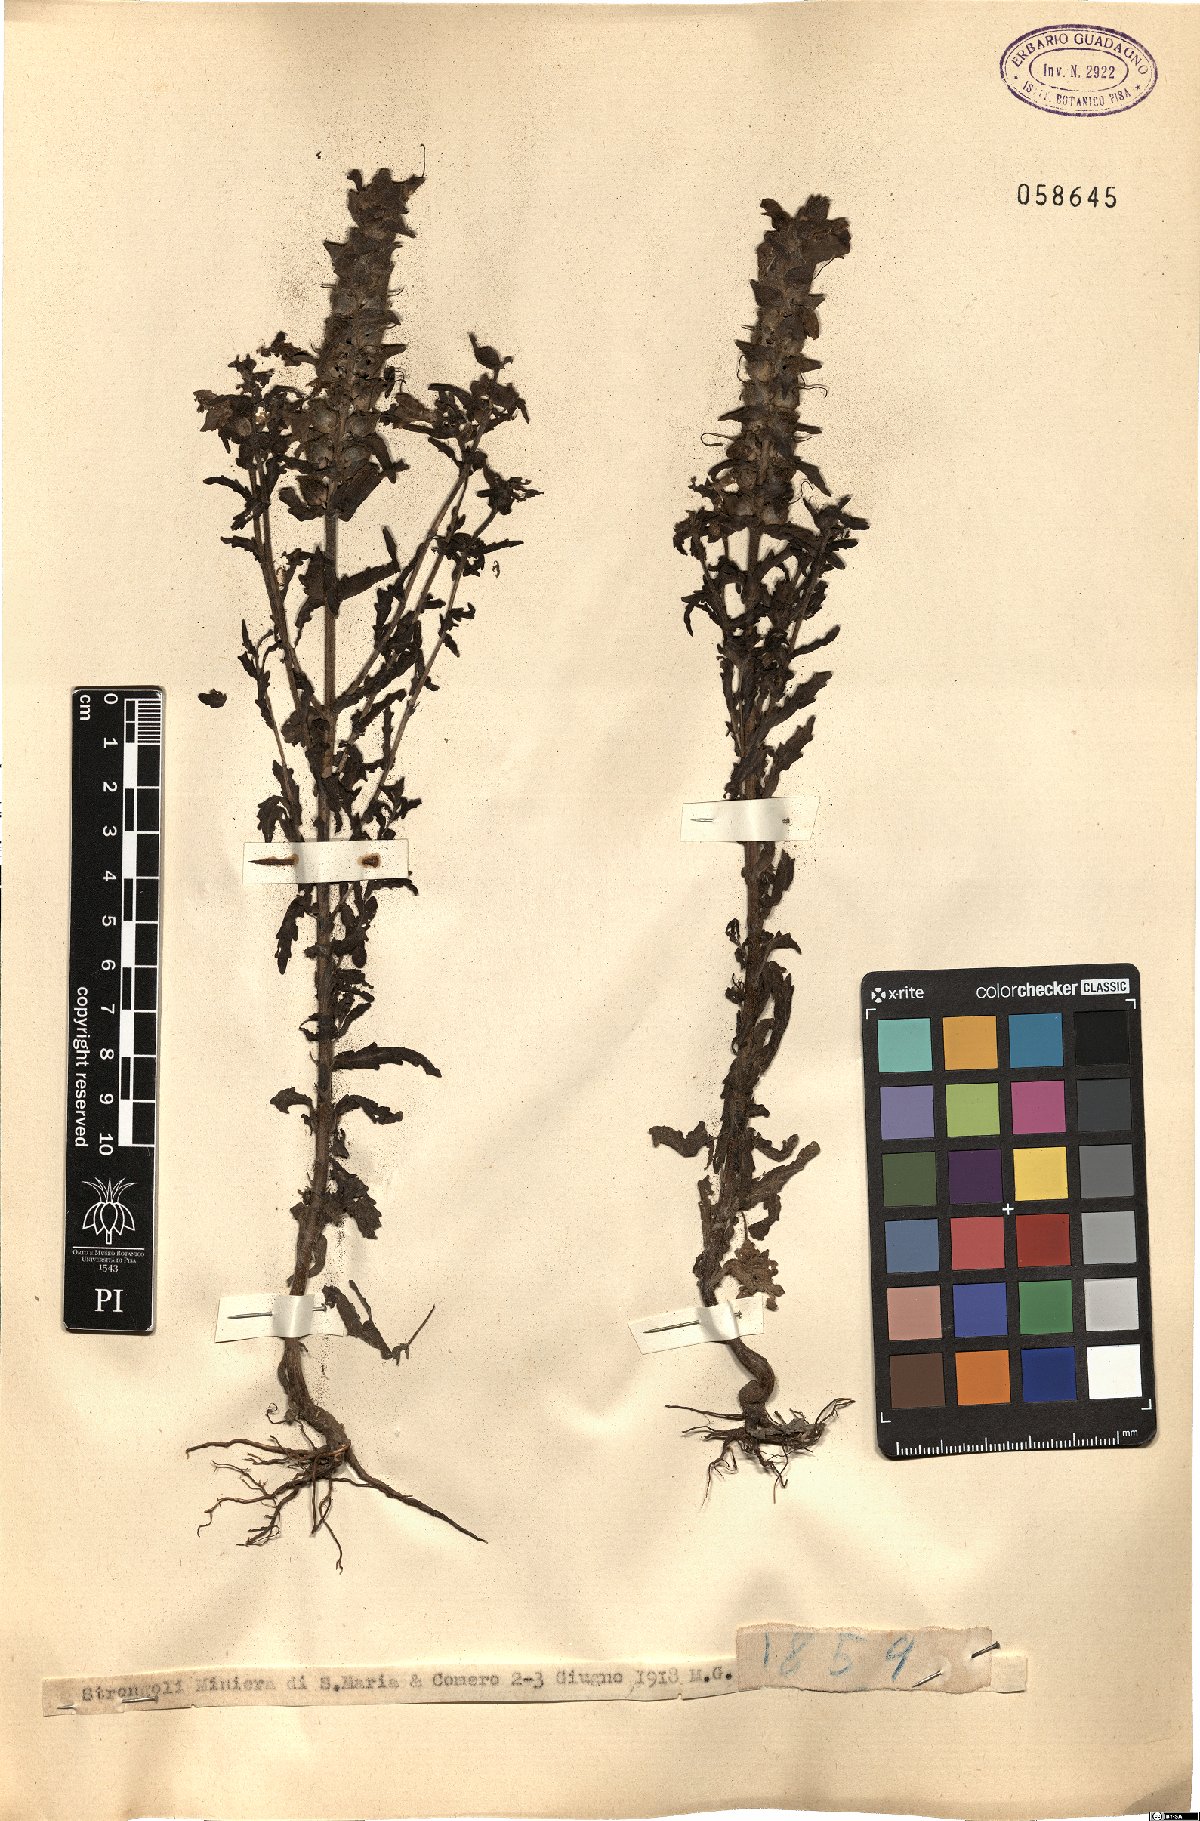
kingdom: Plantae
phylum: Tracheophyta
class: Magnoliopsida
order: Lamiales
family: Orobanchaceae
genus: Bartsia
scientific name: Bartsia
